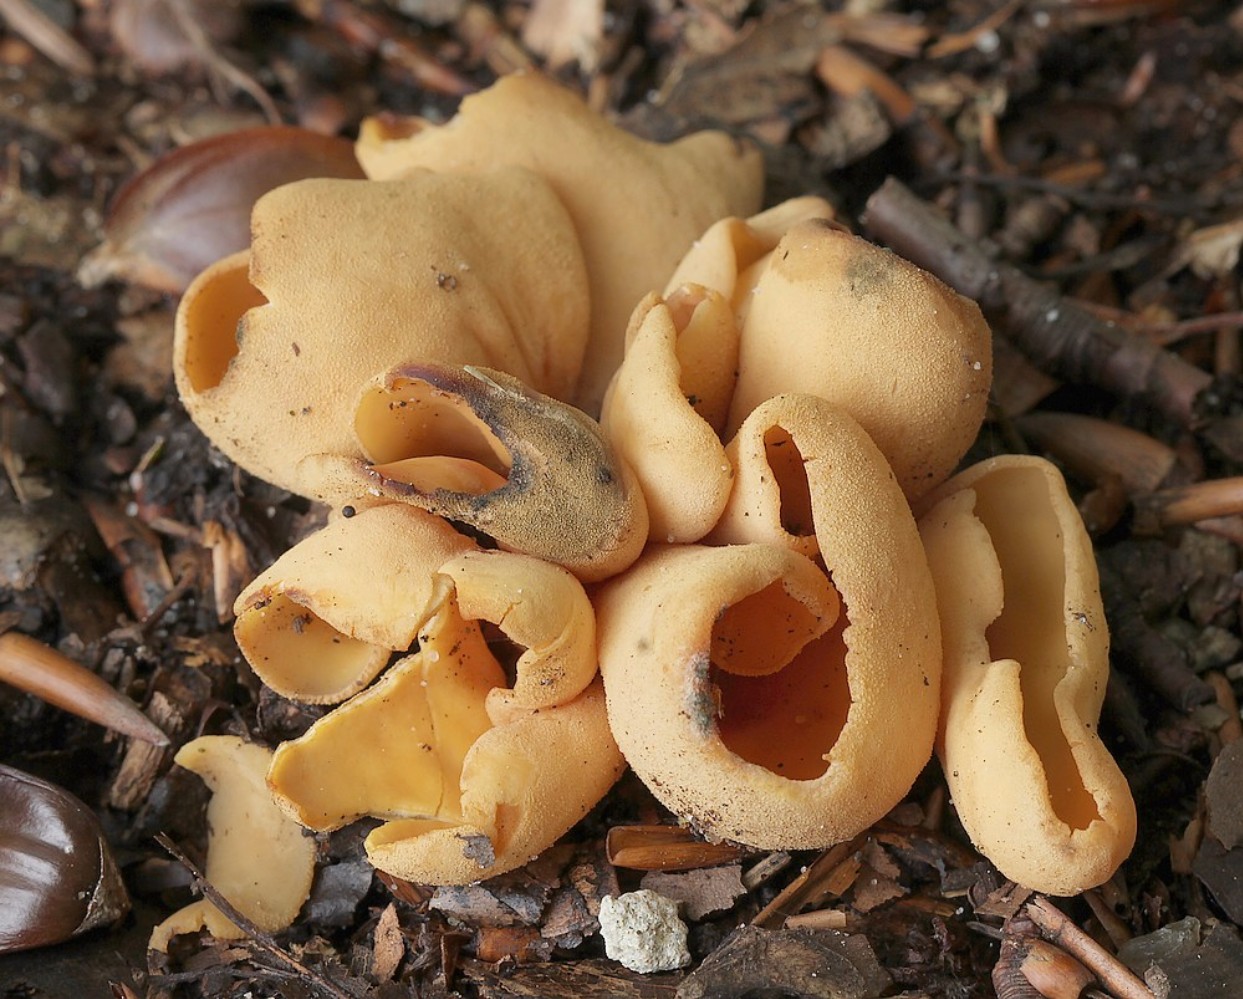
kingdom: Fungi
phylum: Ascomycota
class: Pezizomycetes
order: Pezizales
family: Otideaceae
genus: Otidea
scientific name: Otidea onotica
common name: æsel-ørebæger
